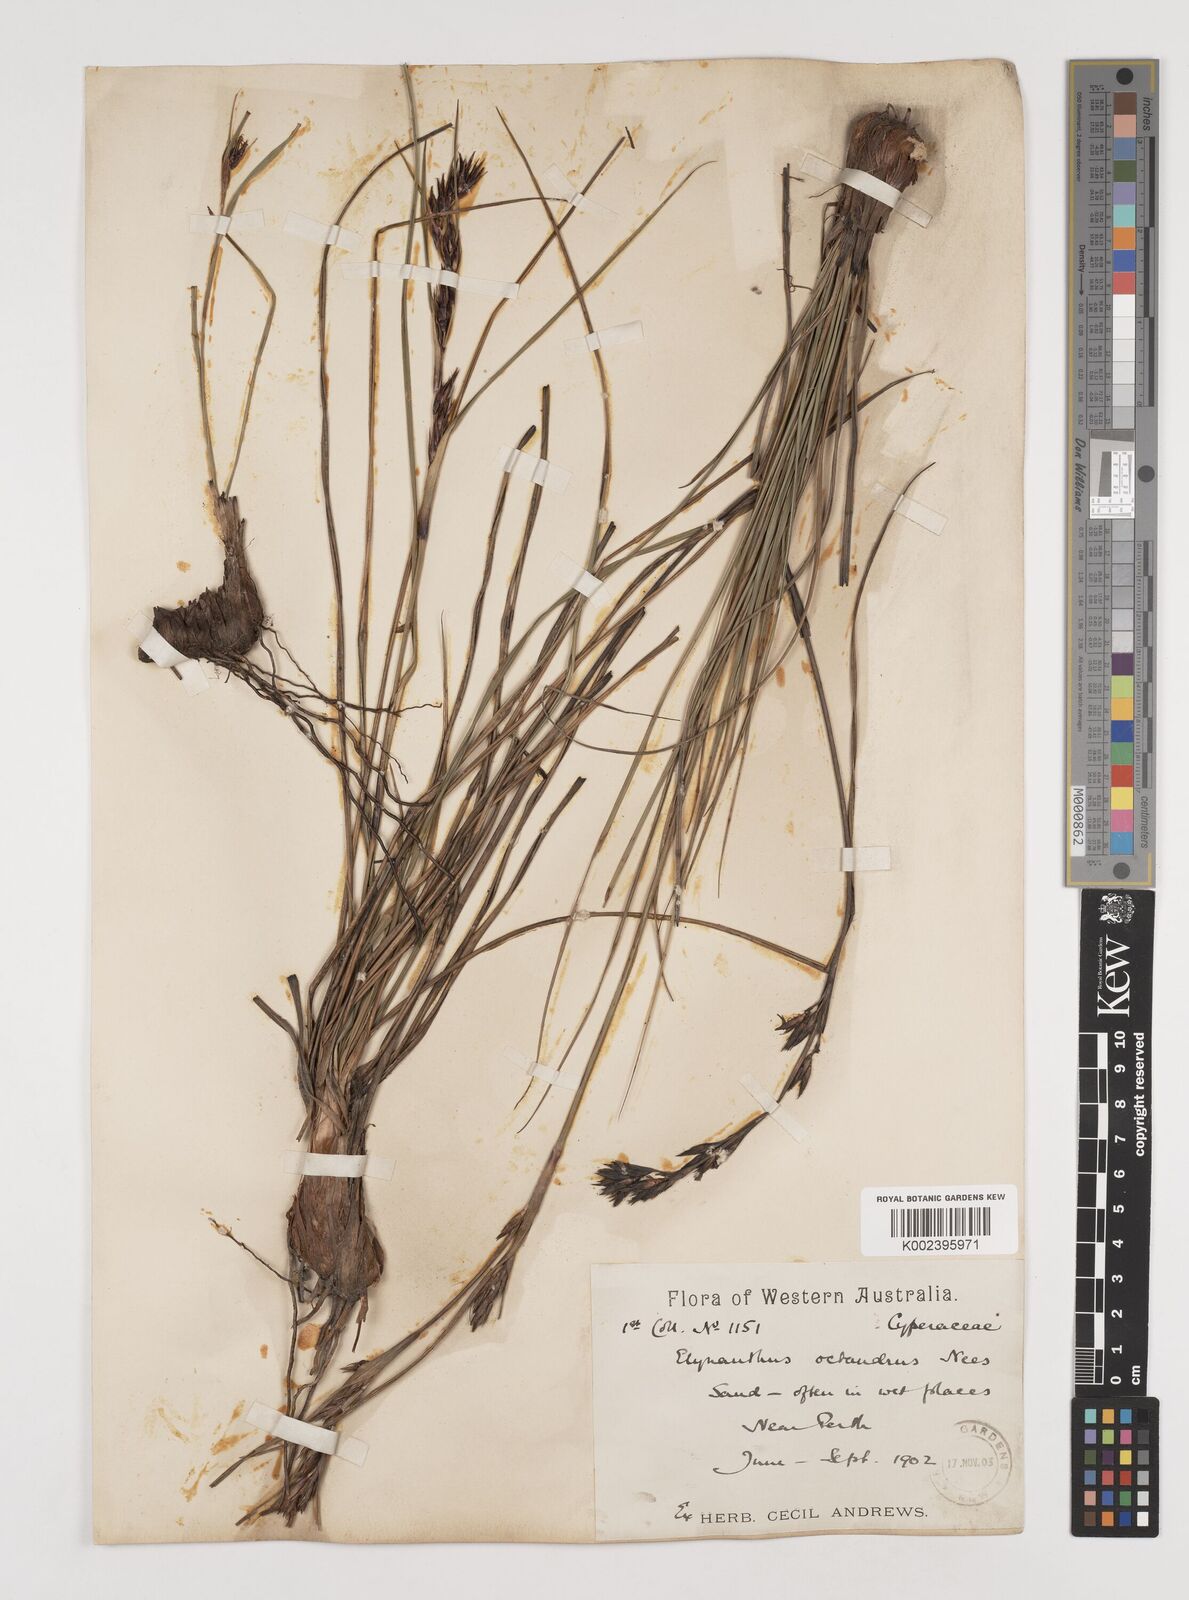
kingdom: Plantae
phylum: Tracheophyta
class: Liliopsida
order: Poales
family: Cyperaceae
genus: Tetraria
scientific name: Tetraria octandra
